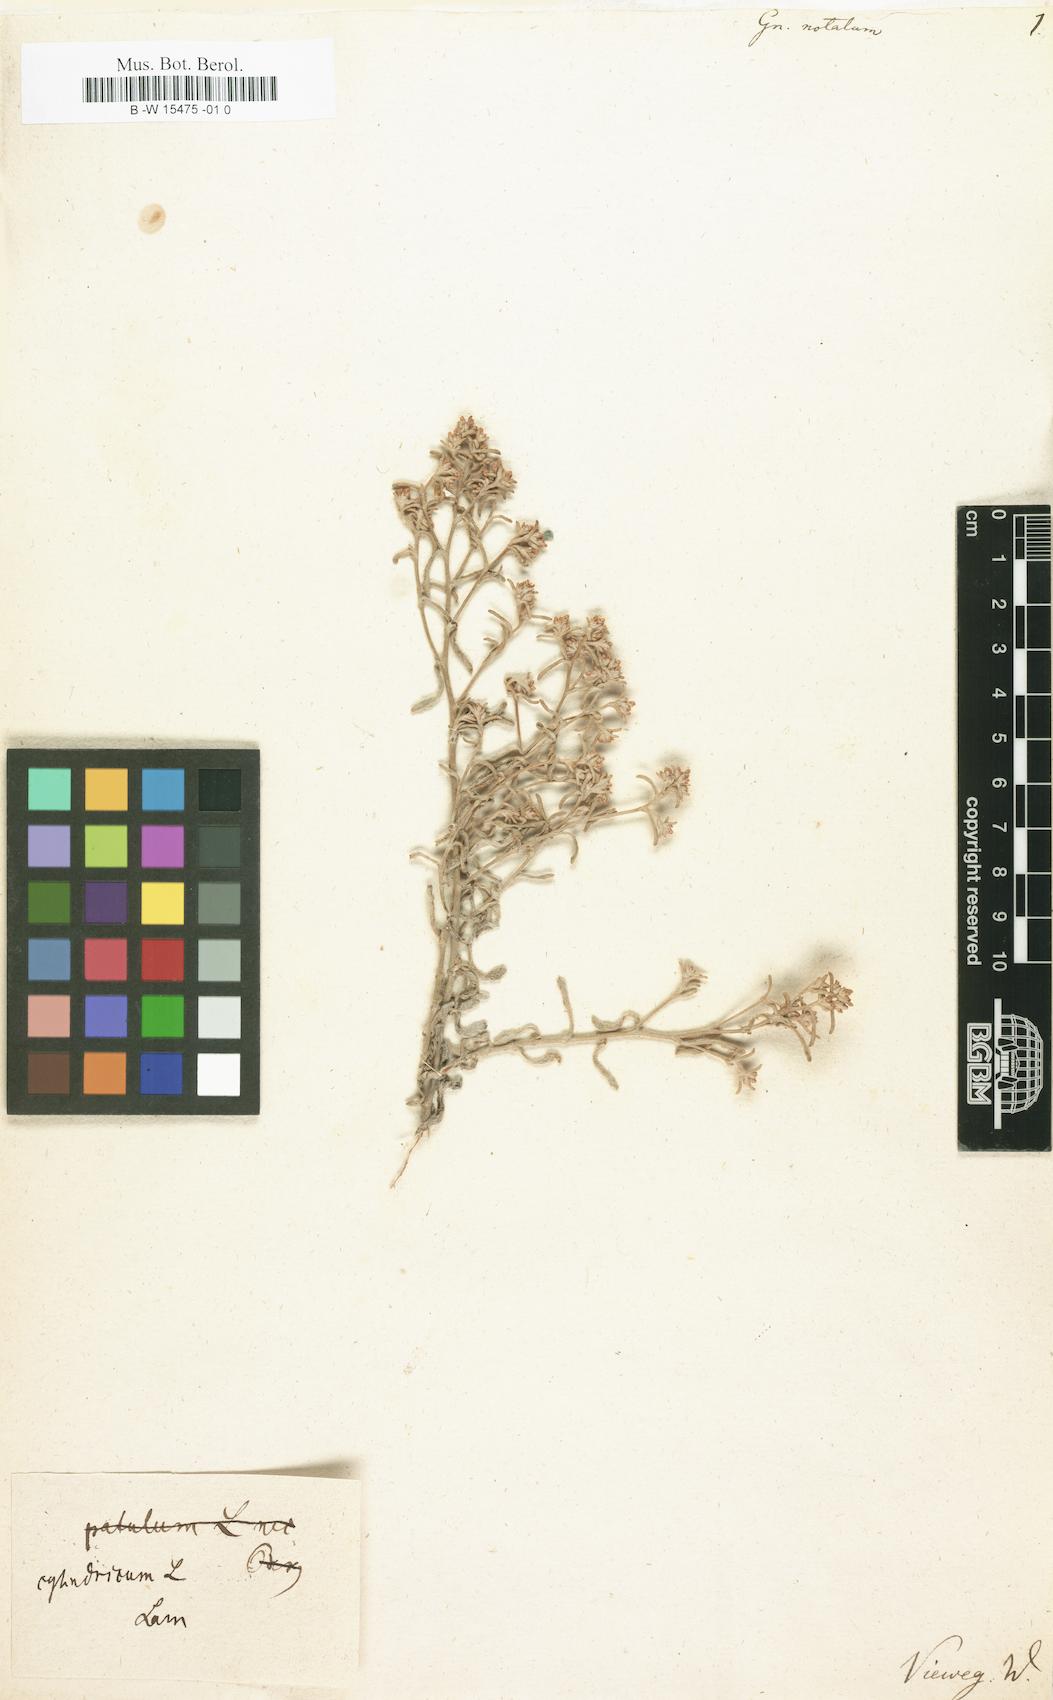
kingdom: Plantae
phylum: Tracheophyta
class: Magnoliopsida
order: Asterales
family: Asteraceae
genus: Gnaphalium
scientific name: Gnaphalium
